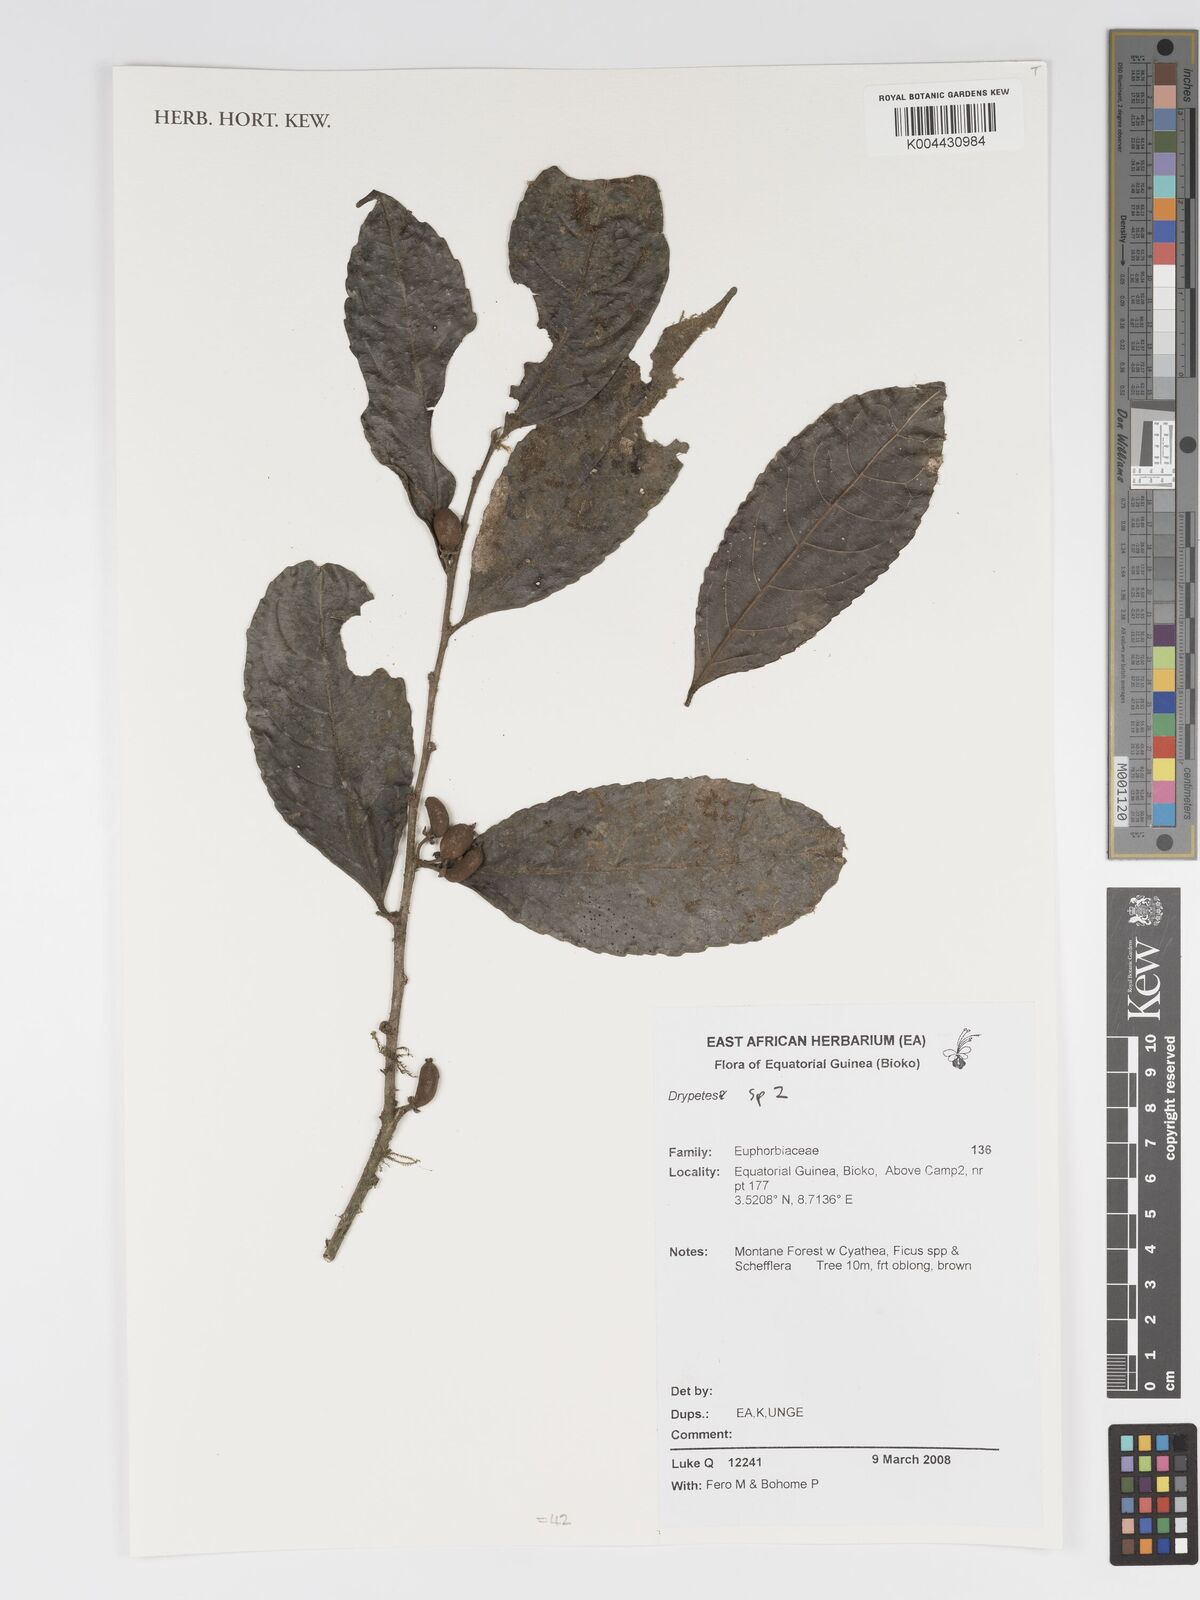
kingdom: Plantae
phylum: Tracheophyta
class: Magnoliopsida
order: Malpighiales
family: Putranjivaceae
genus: Drypetes
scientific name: Drypetes
